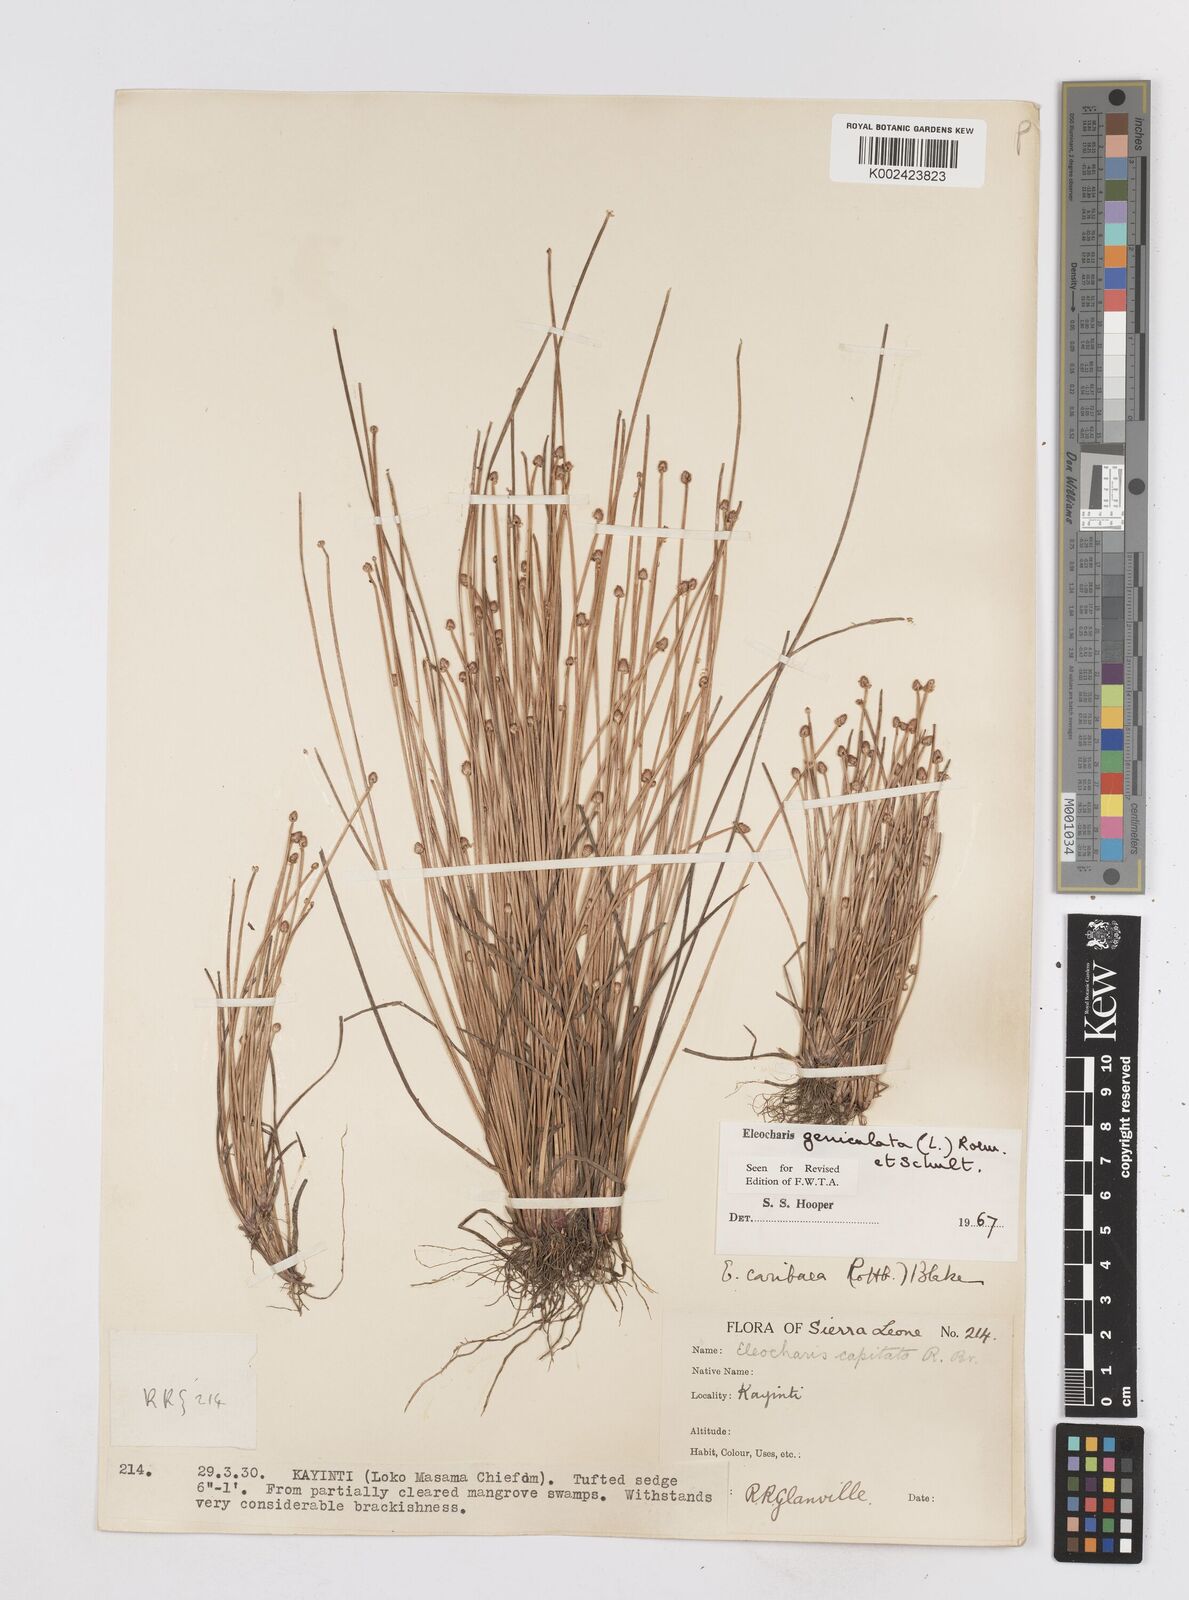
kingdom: Plantae
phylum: Tracheophyta
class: Liliopsida
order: Poales
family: Cyperaceae
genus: Eleocharis
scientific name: Eleocharis geniculata
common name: Canada spikesedge
